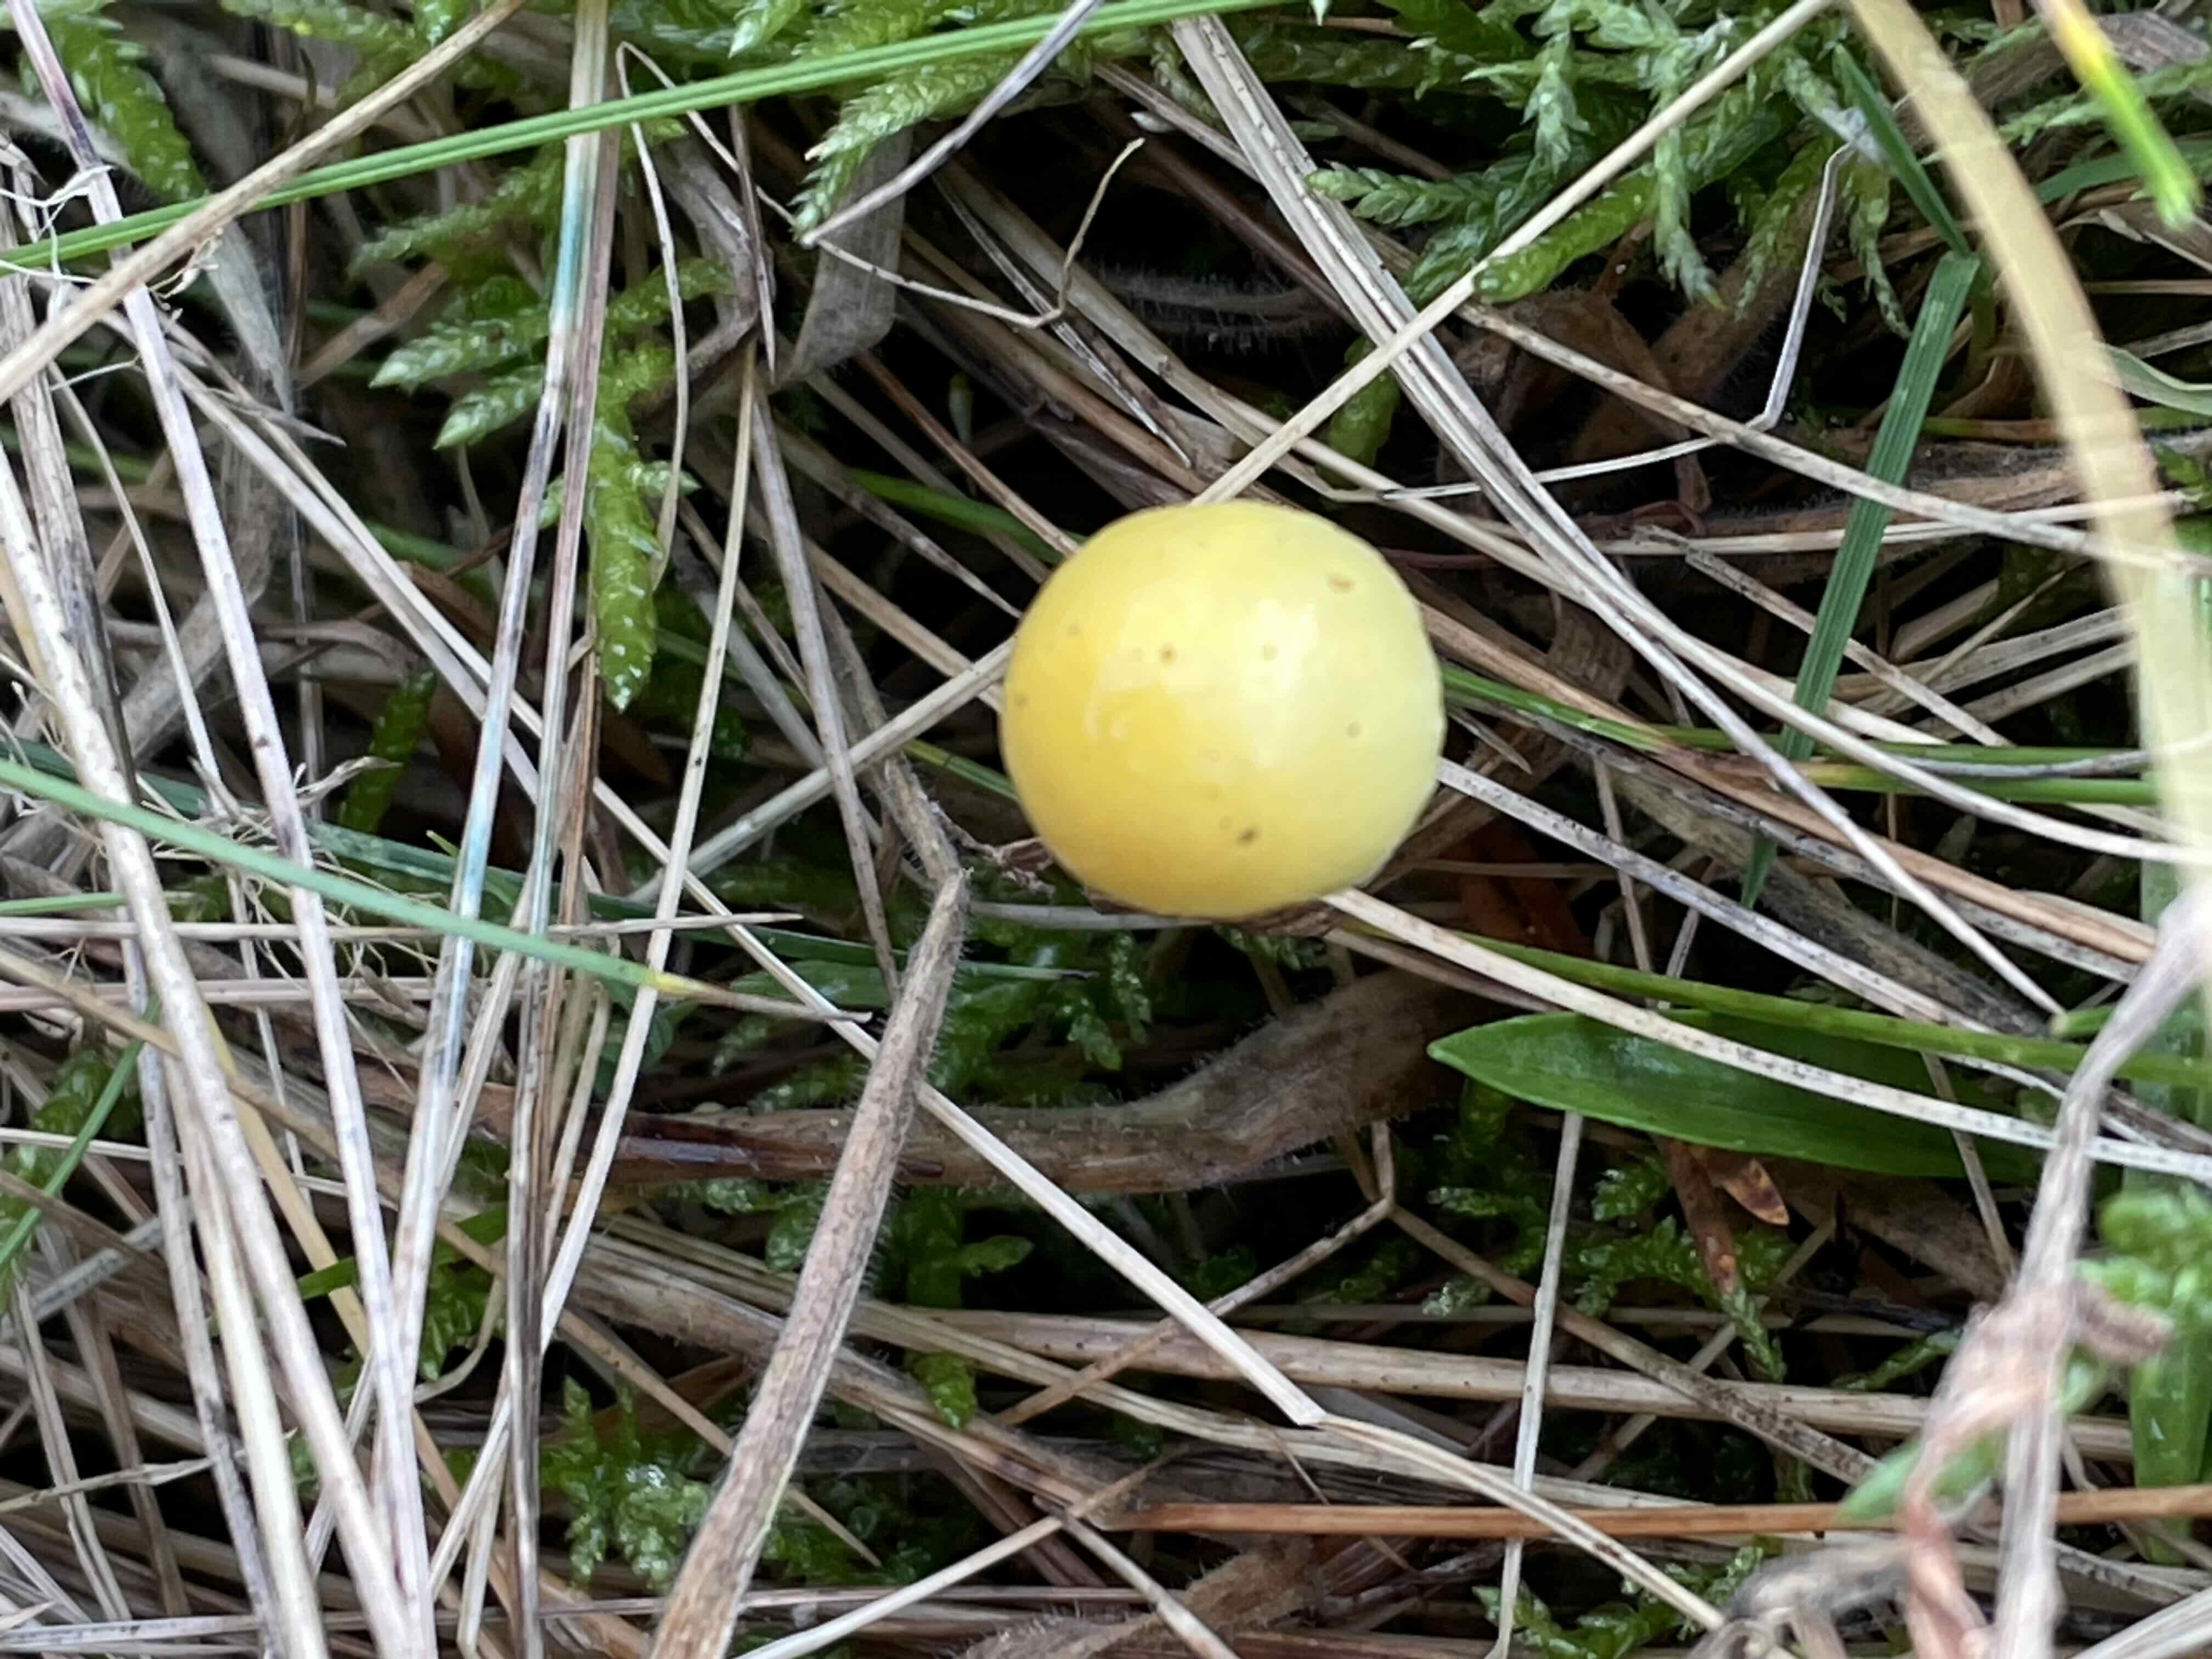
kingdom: Fungi
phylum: Basidiomycota
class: Agaricomycetes
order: Agaricales
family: Bolbitiaceae
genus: Bolbitius
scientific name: Bolbitius titubans
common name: almindelig gulhat
